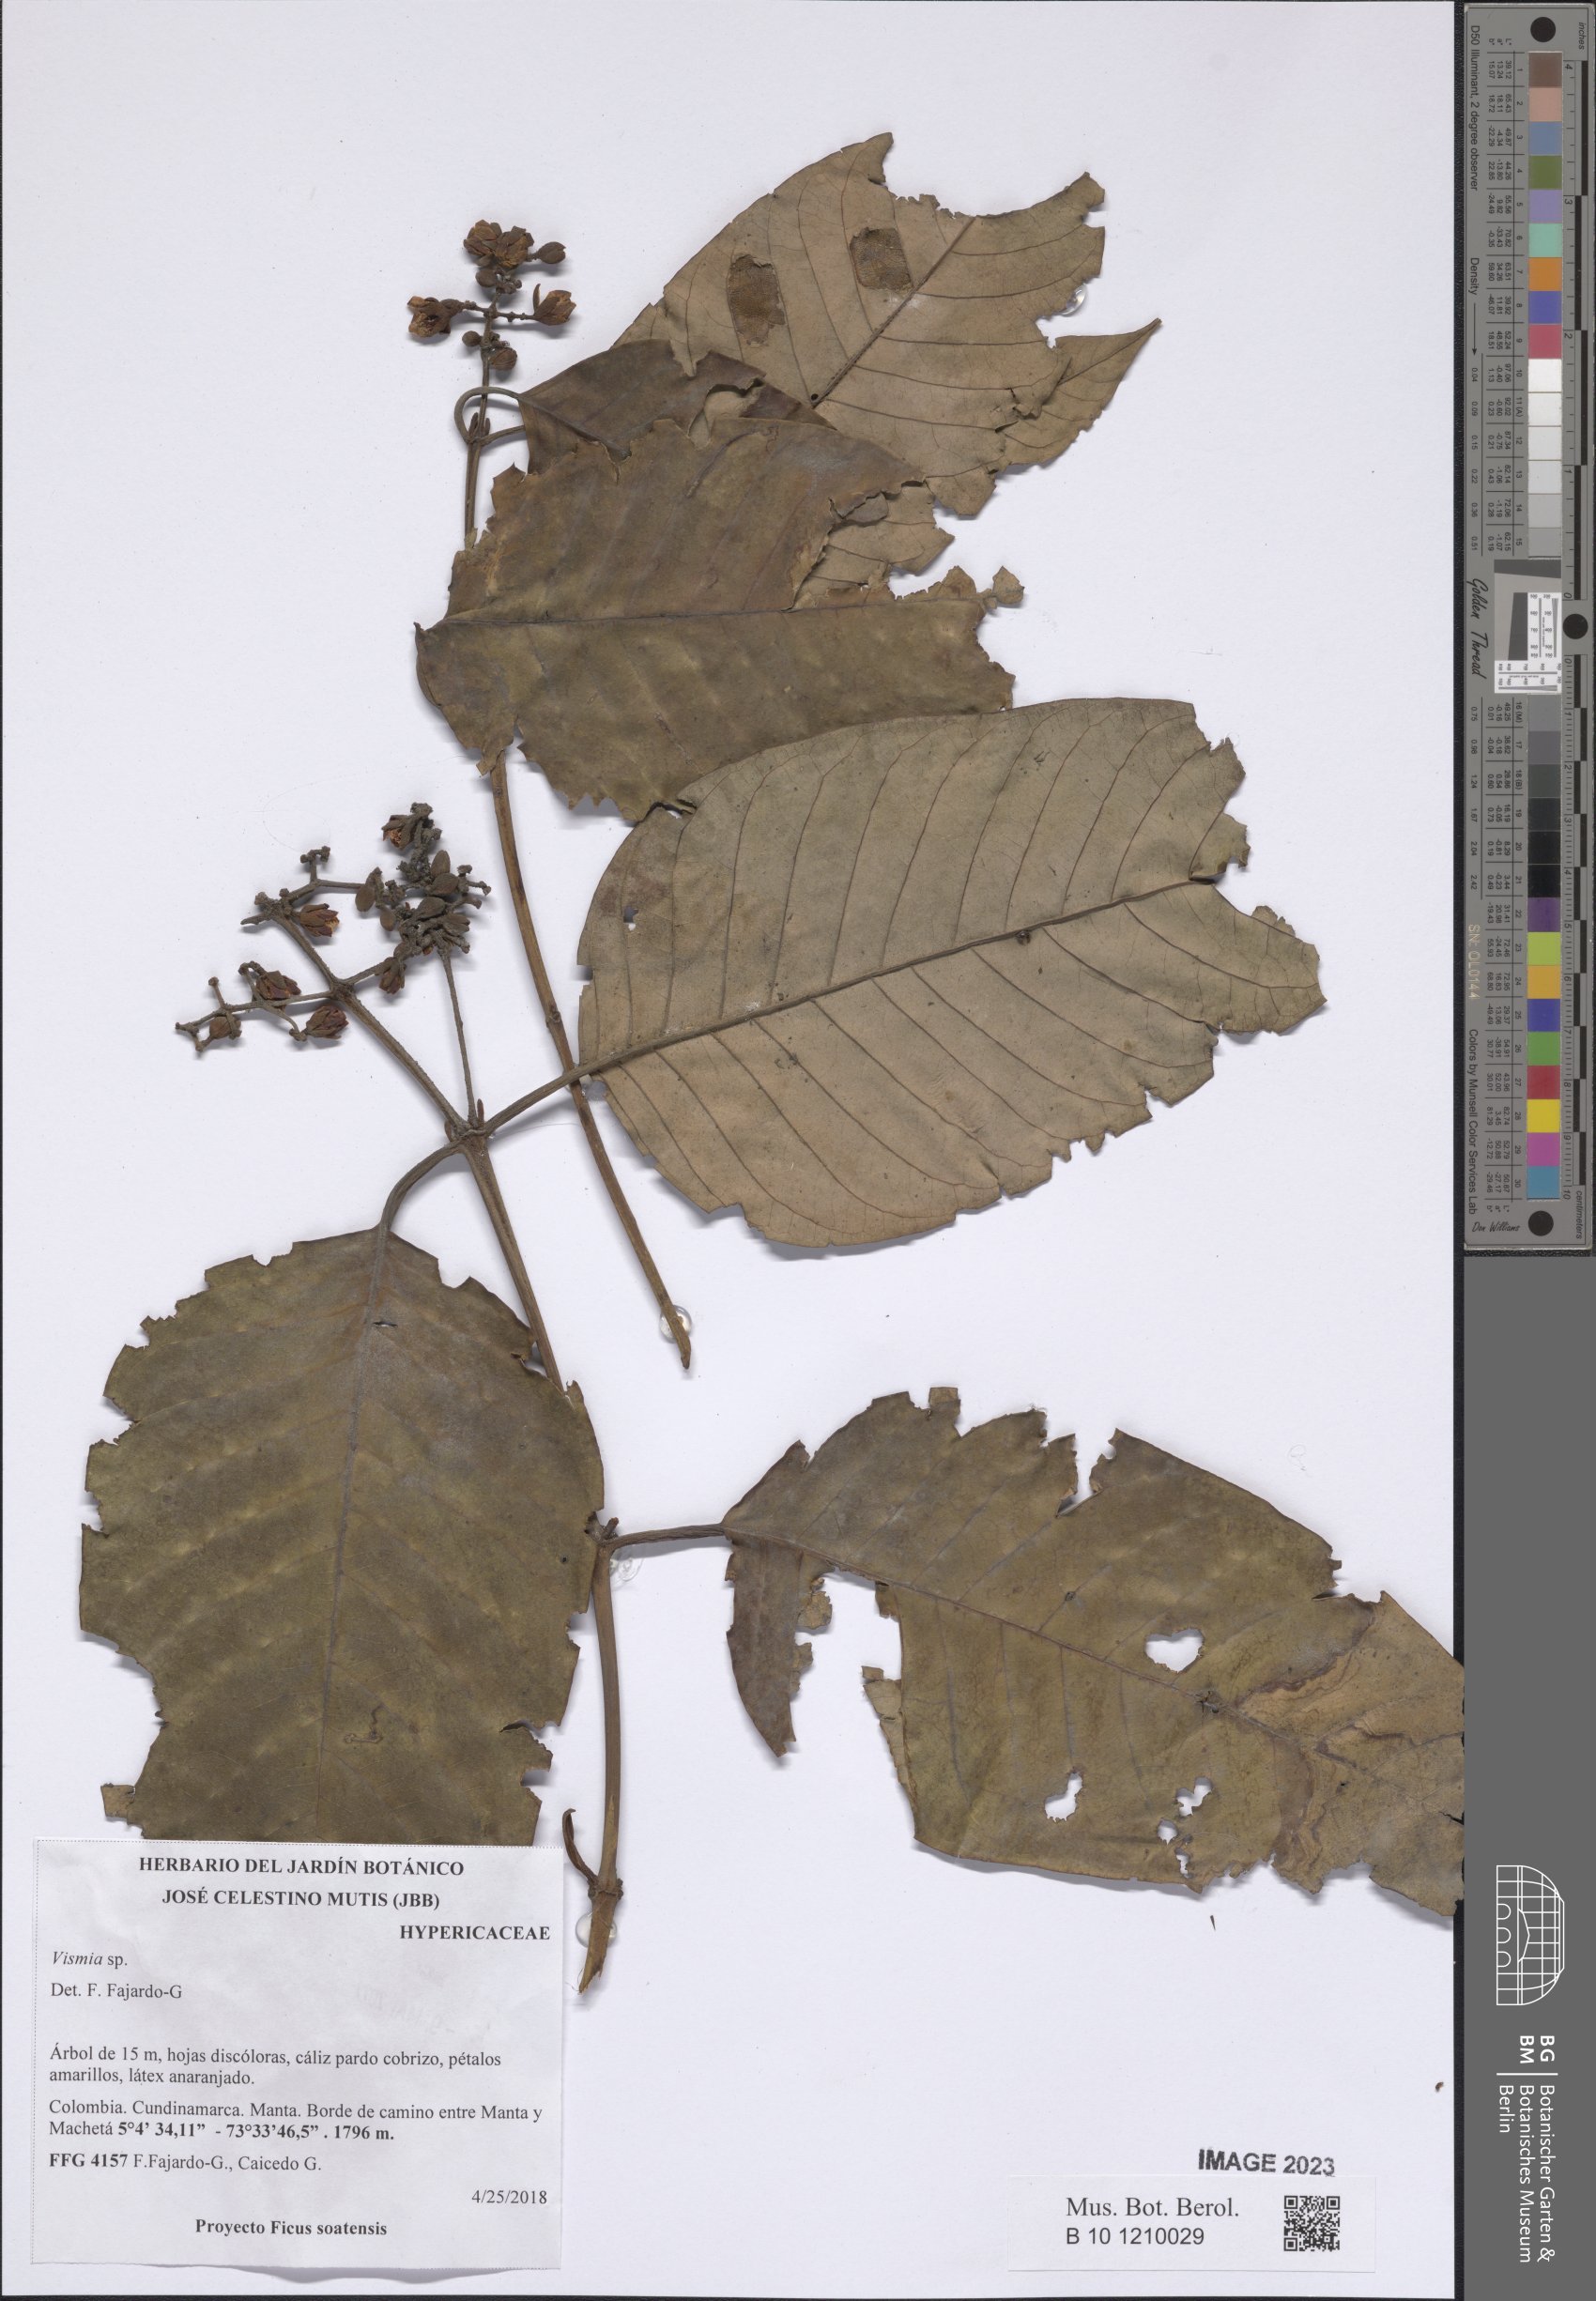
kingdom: Plantae
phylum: Tracheophyta
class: Magnoliopsida
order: Malpighiales
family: Hypericaceae
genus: Vismia
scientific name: Vismia
